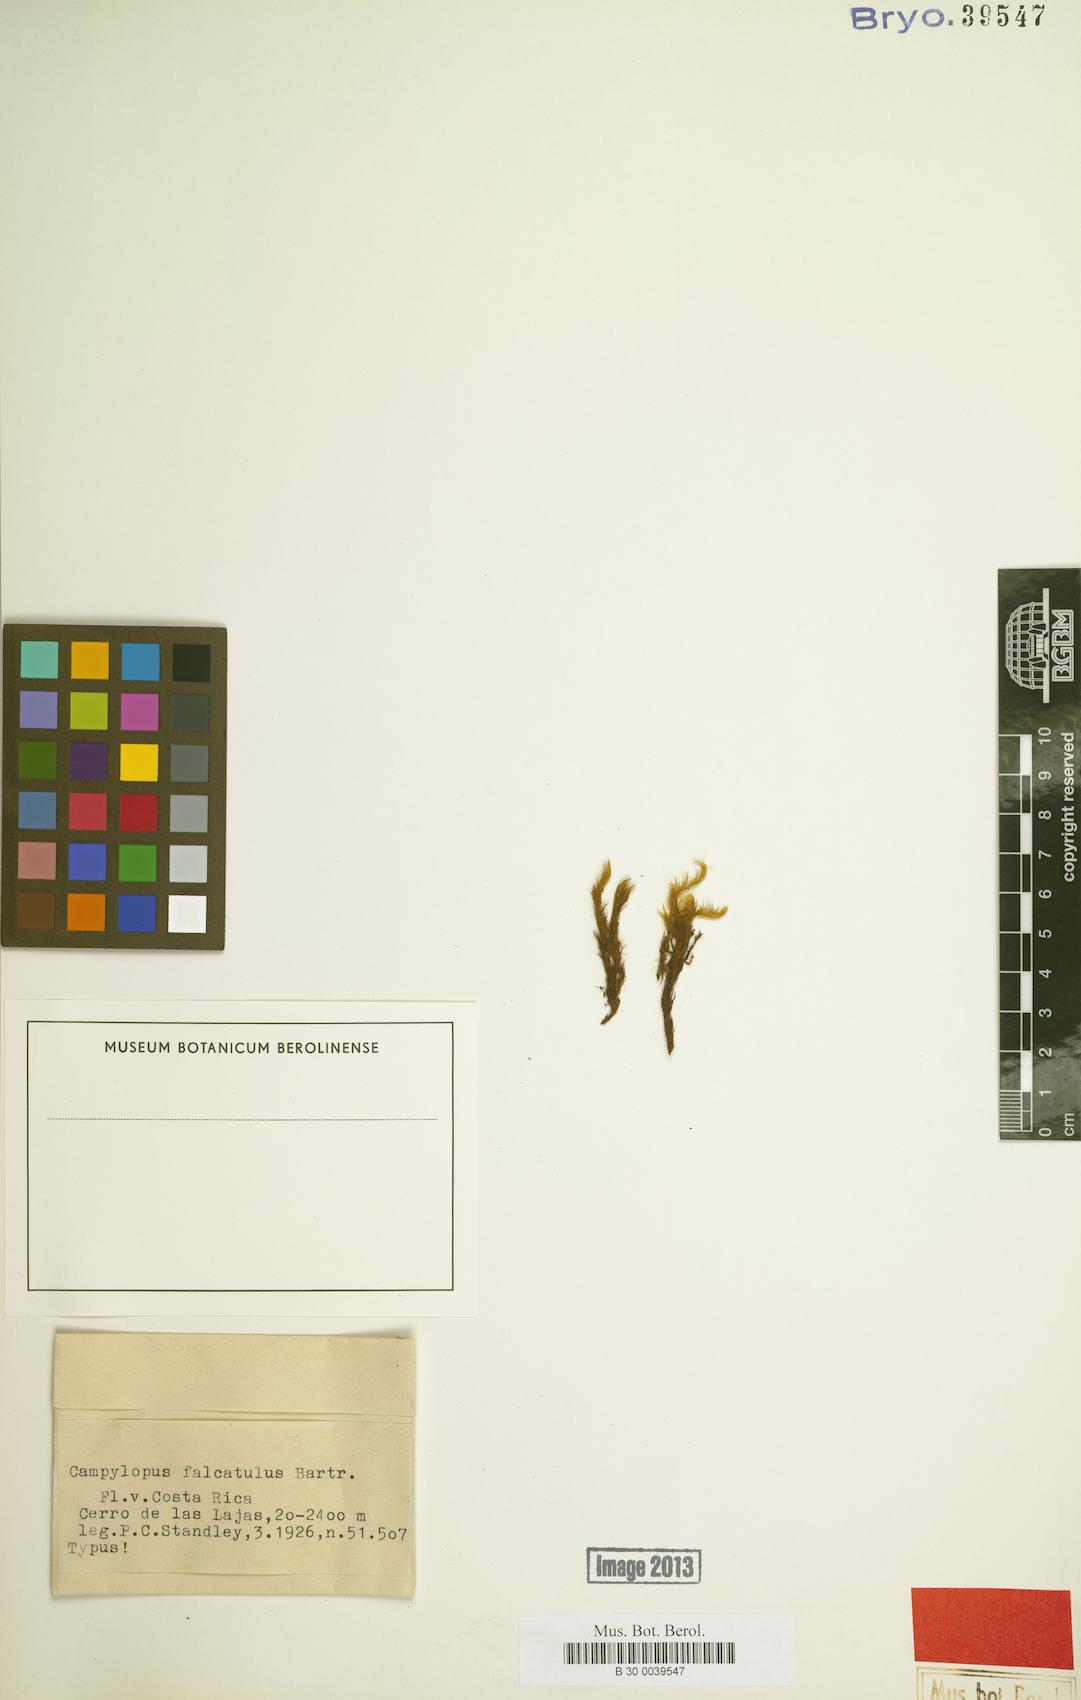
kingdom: Plantae
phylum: Bryophyta
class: Bryopsida
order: Dicranales
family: Leucobryaceae
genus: Campylopus
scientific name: Campylopus arctocarpus
